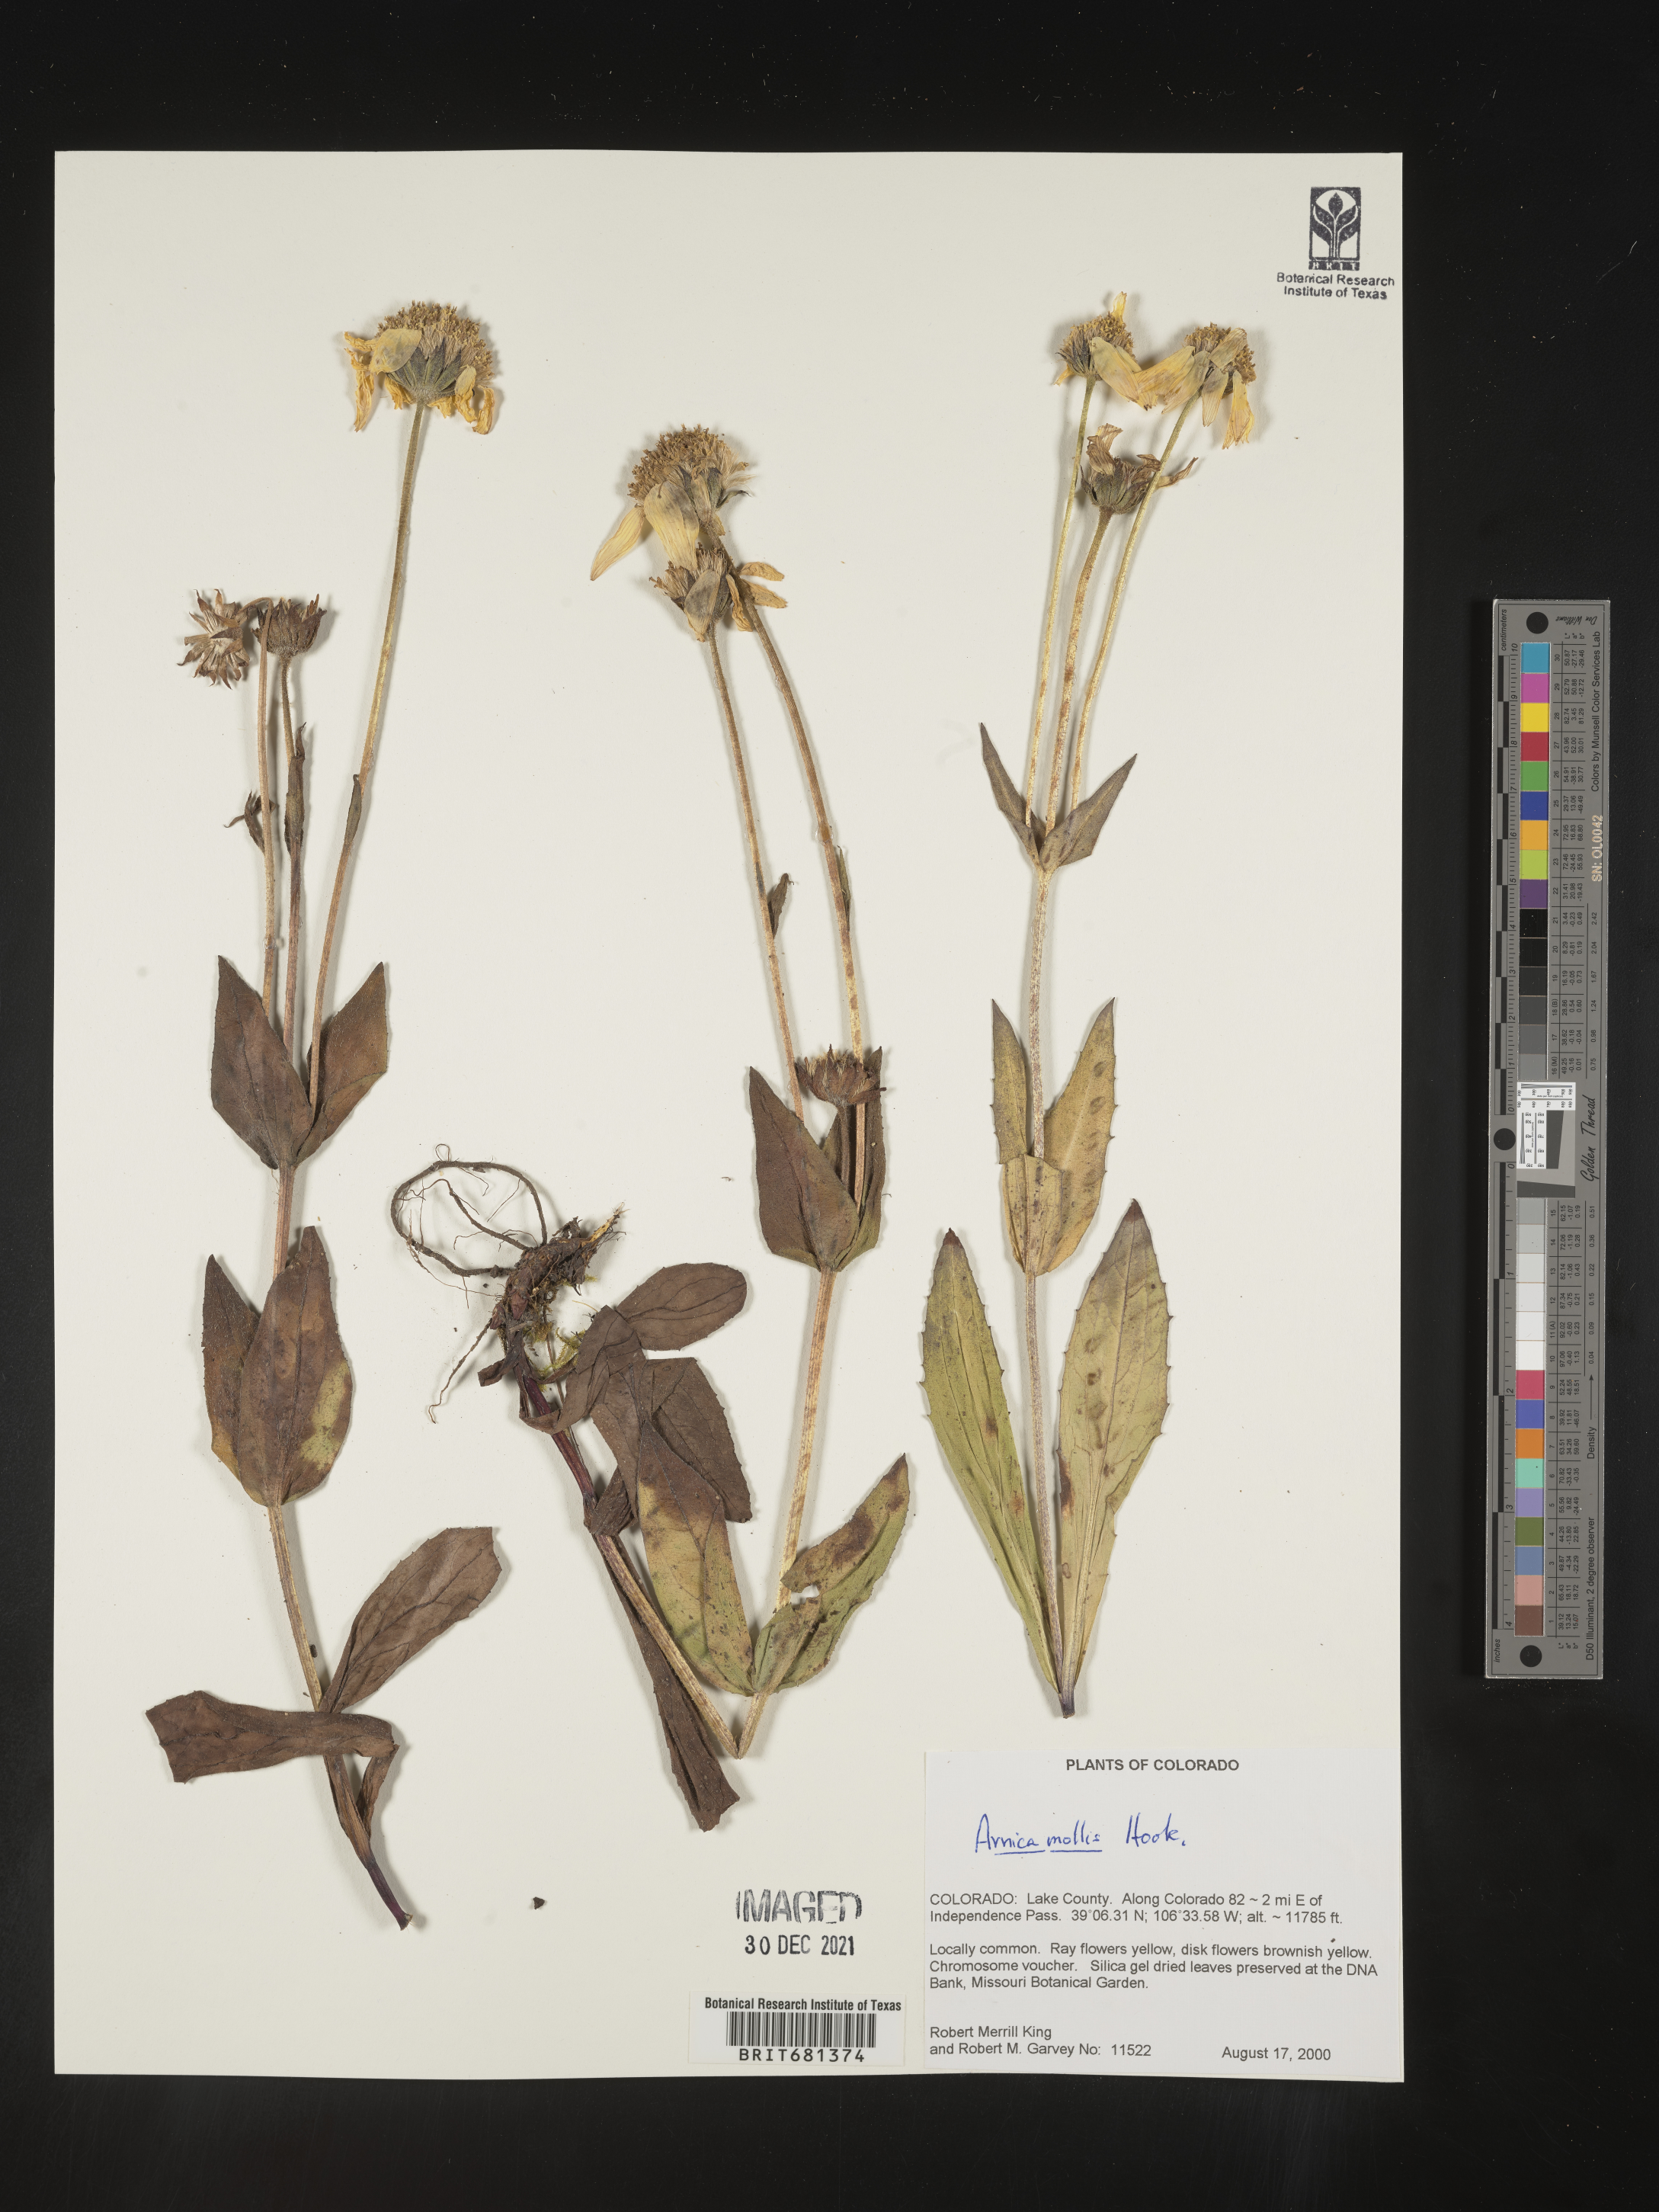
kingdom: Plantae
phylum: Tracheophyta
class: Magnoliopsida
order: Asterales
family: Asteraceae
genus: Arnica
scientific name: Arnica mollis
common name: Hairy arnica
